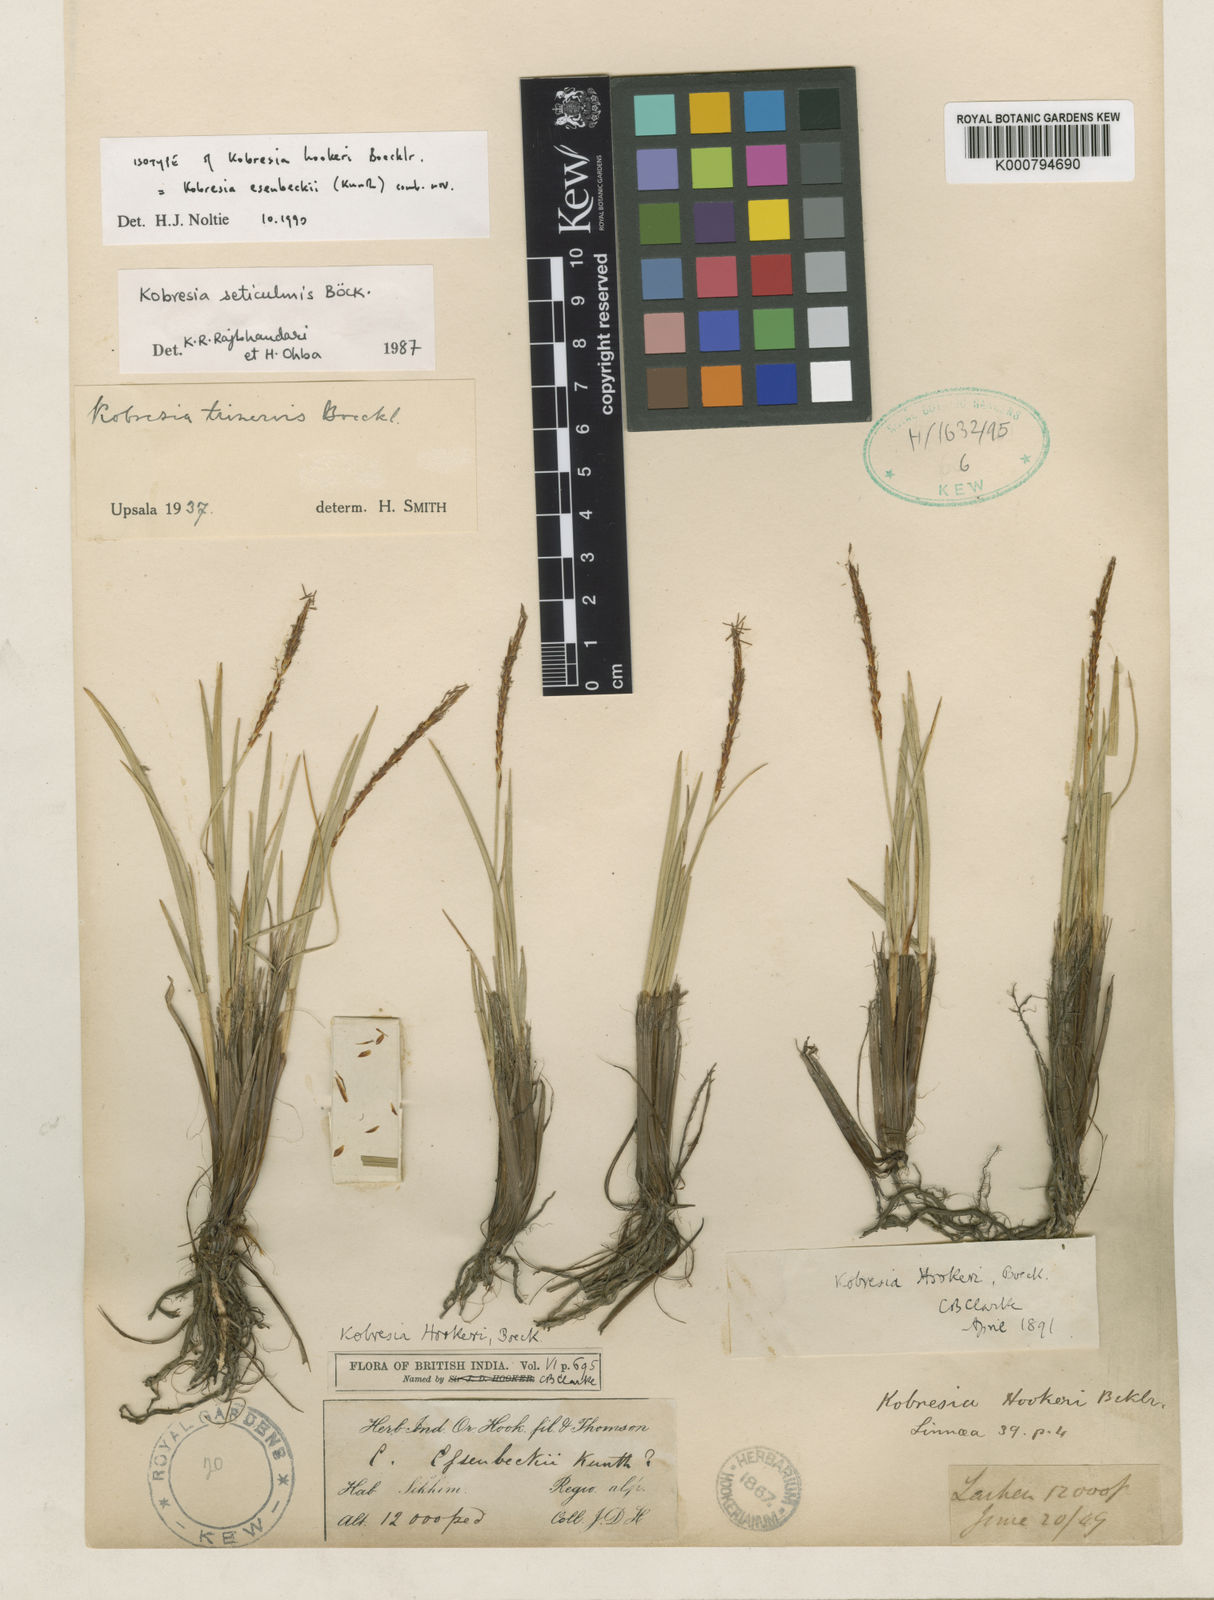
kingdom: Plantae
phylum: Tracheophyta
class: Liliopsida
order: Poales
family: Cyperaceae
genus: Carex
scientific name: Carex esenbeckii
